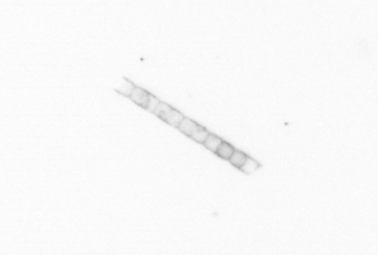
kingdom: Chromista
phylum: Ochrophyta
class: Bacillariophyceae
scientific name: Bacillariophyceae
